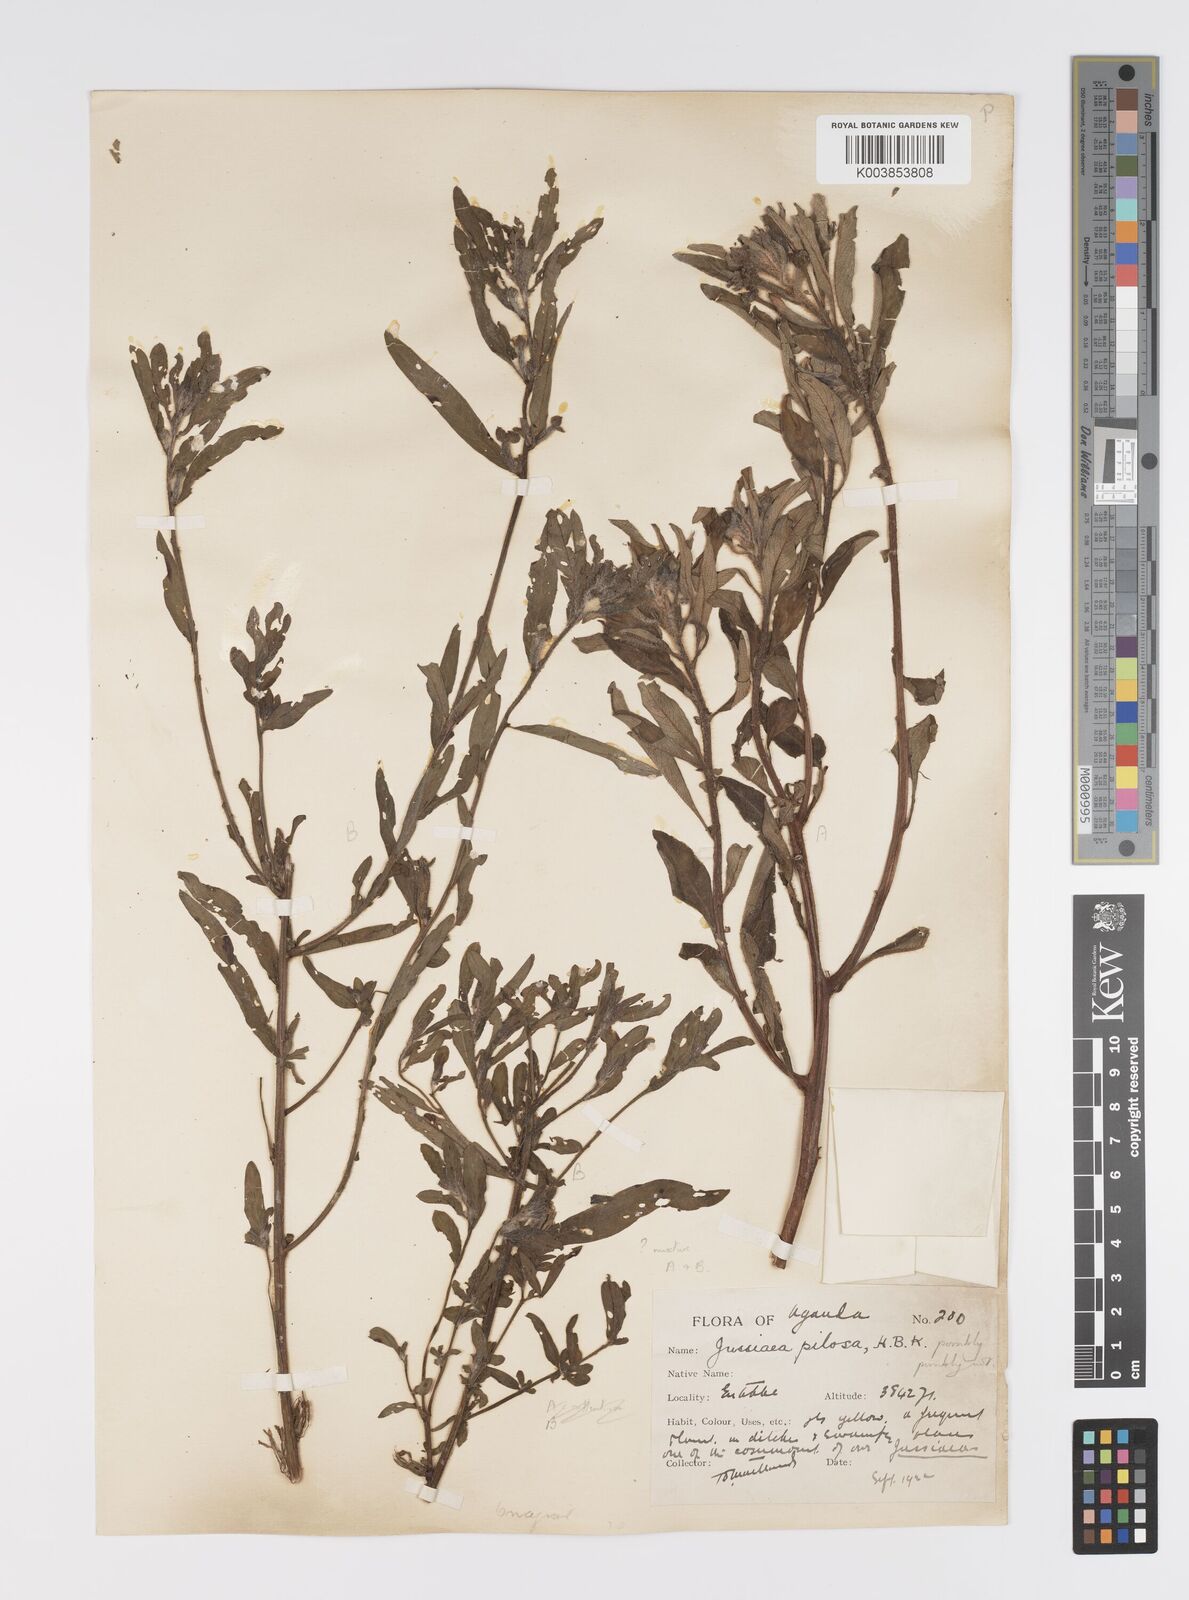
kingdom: Plantae
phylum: Tracheophyta
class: Magnoliopsida
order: Myrtales
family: Onagraceae
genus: Ludwigia
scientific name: Ludwigia
